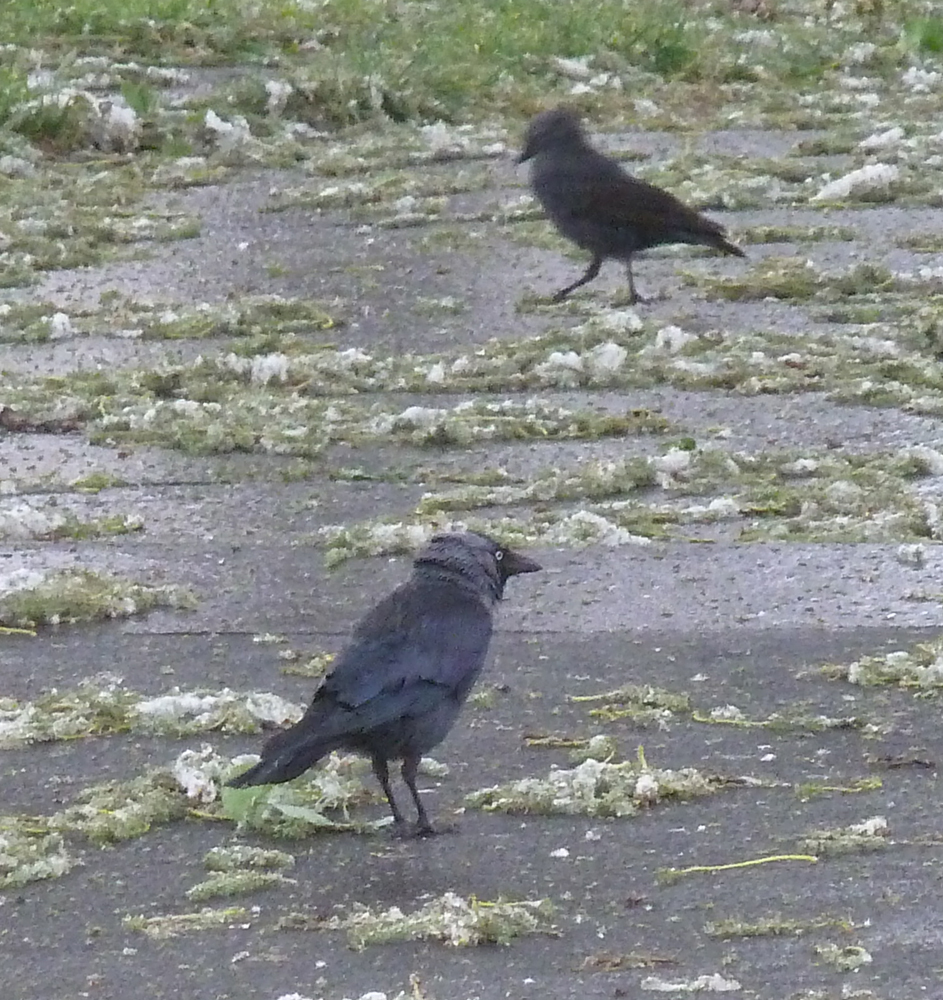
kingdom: Animalia
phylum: Chordata
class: Aves
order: Passeriformes
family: Corvidae
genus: Coloeus
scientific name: Coloeus monedula
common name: Western jackdaw
